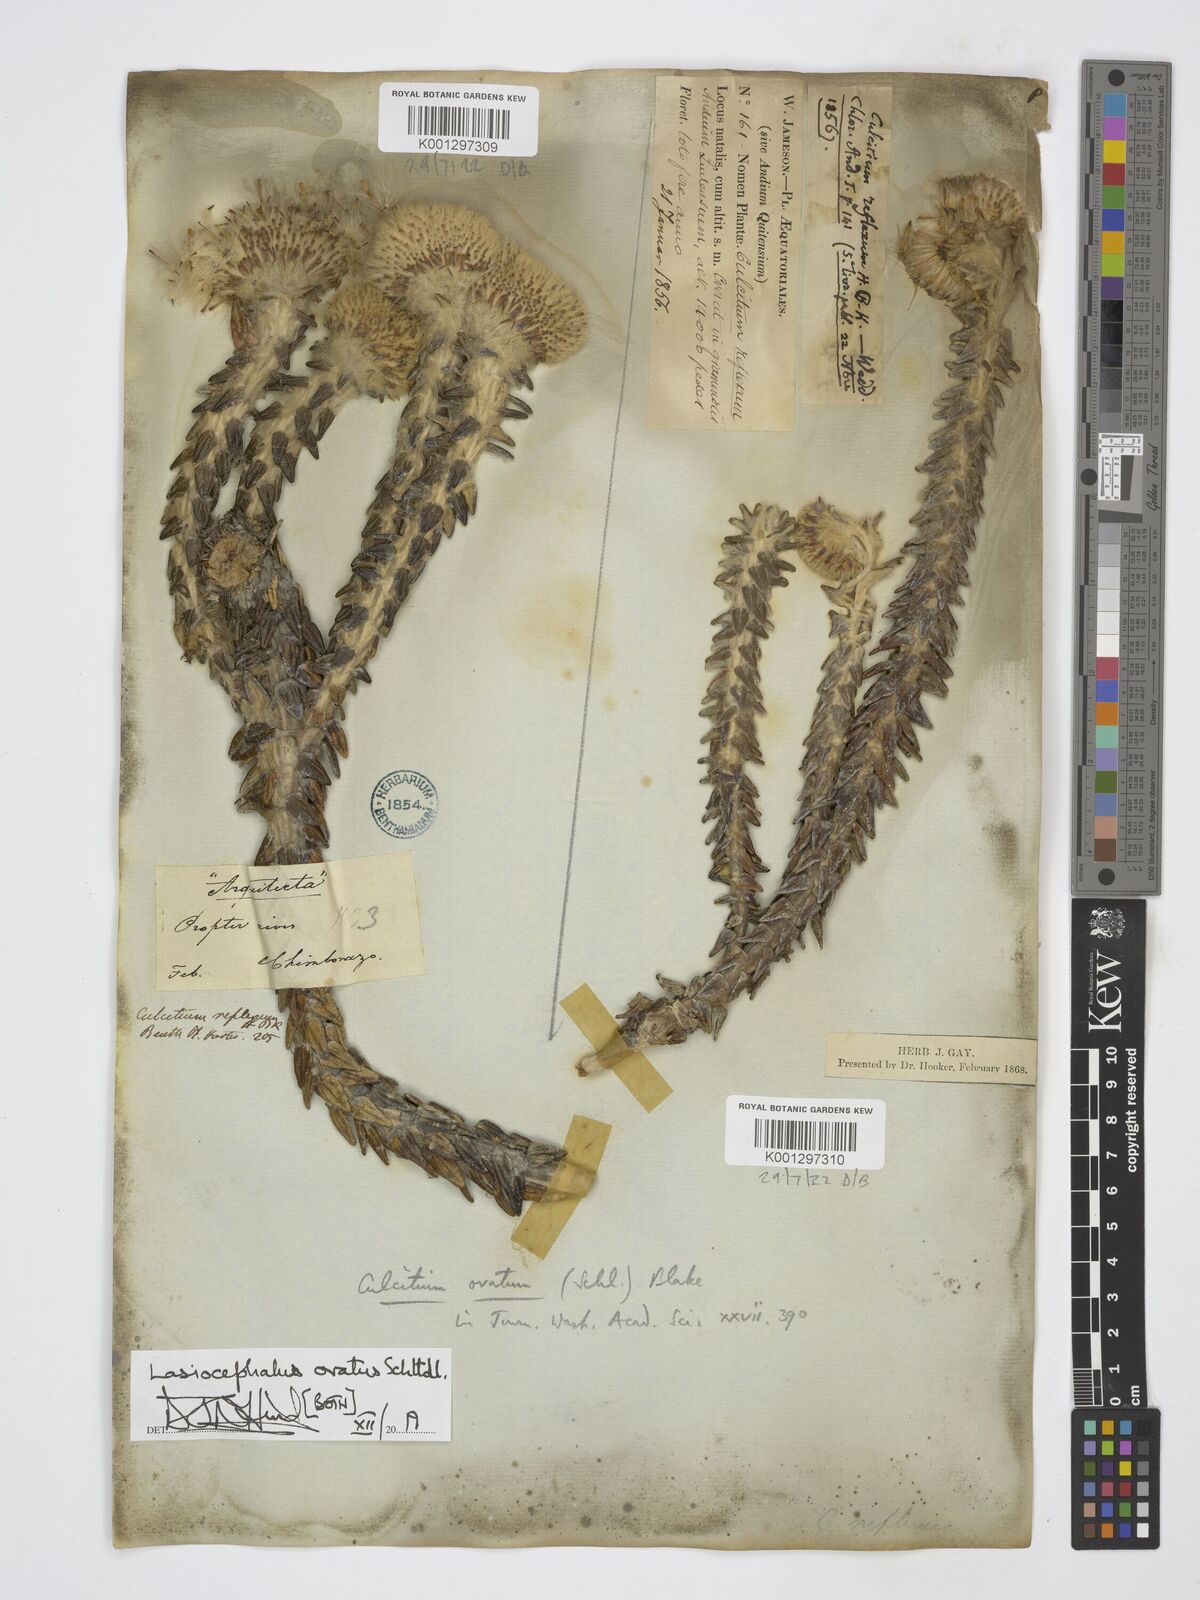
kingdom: Plantae
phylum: Tracheophyta
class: Magnoliopsida
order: Asterales
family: Asteraceae
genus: Lasiocephalus
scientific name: Lasiocephalus ovatus
